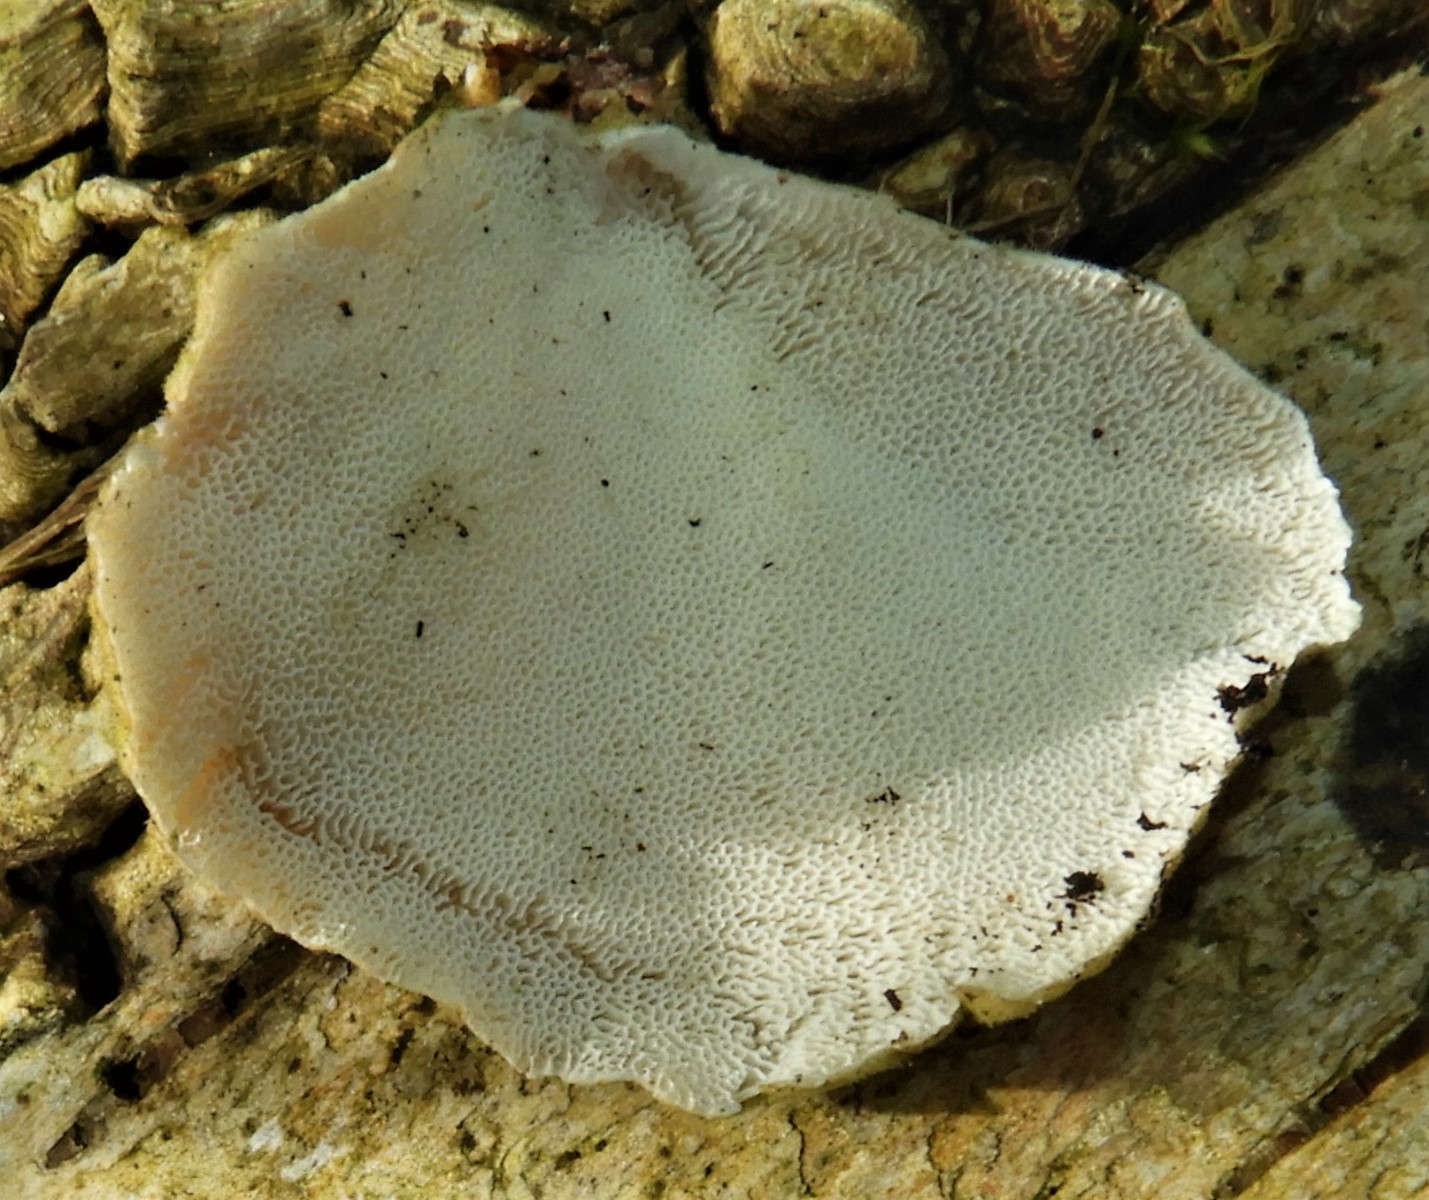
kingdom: Fungi
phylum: Basidiomycota
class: Agaricomycetes
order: Polyporales
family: Polyporaceae
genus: Trametes
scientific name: Trametes
